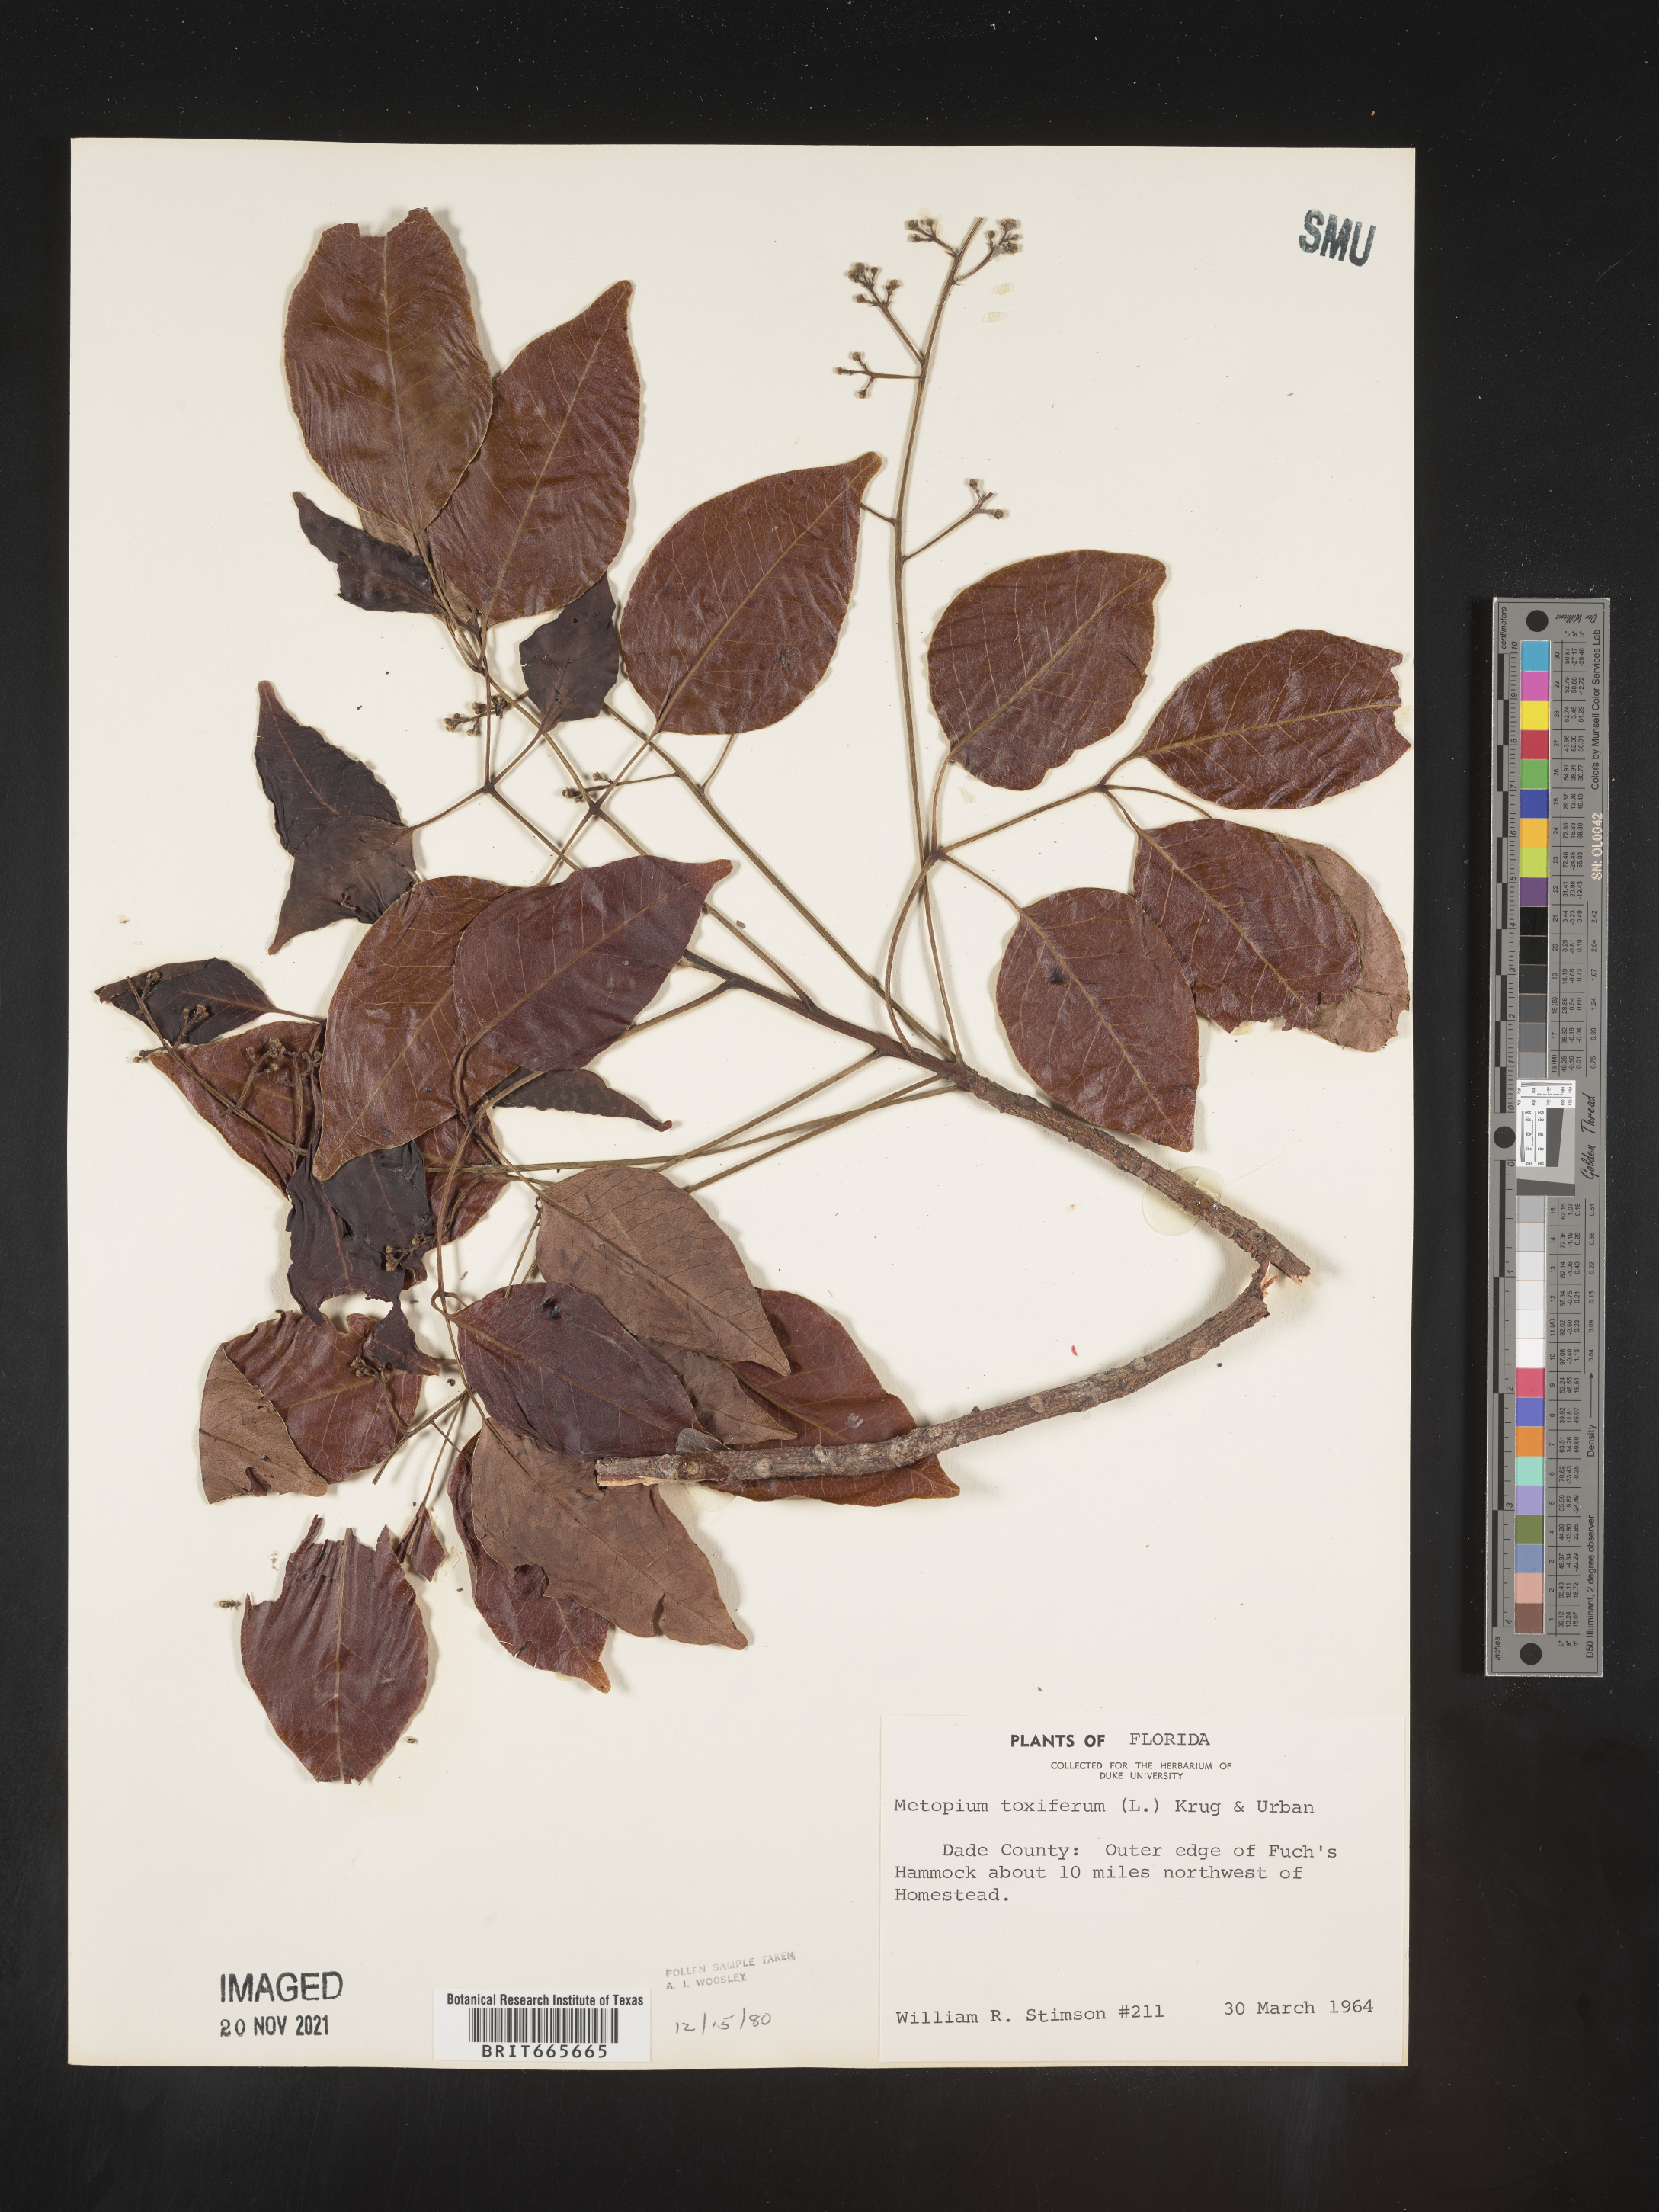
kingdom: Plantae
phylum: Tracheophyta
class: Magnoliopsida
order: Sapindales
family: Anacardiaceae
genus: Metopium
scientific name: Metopium
